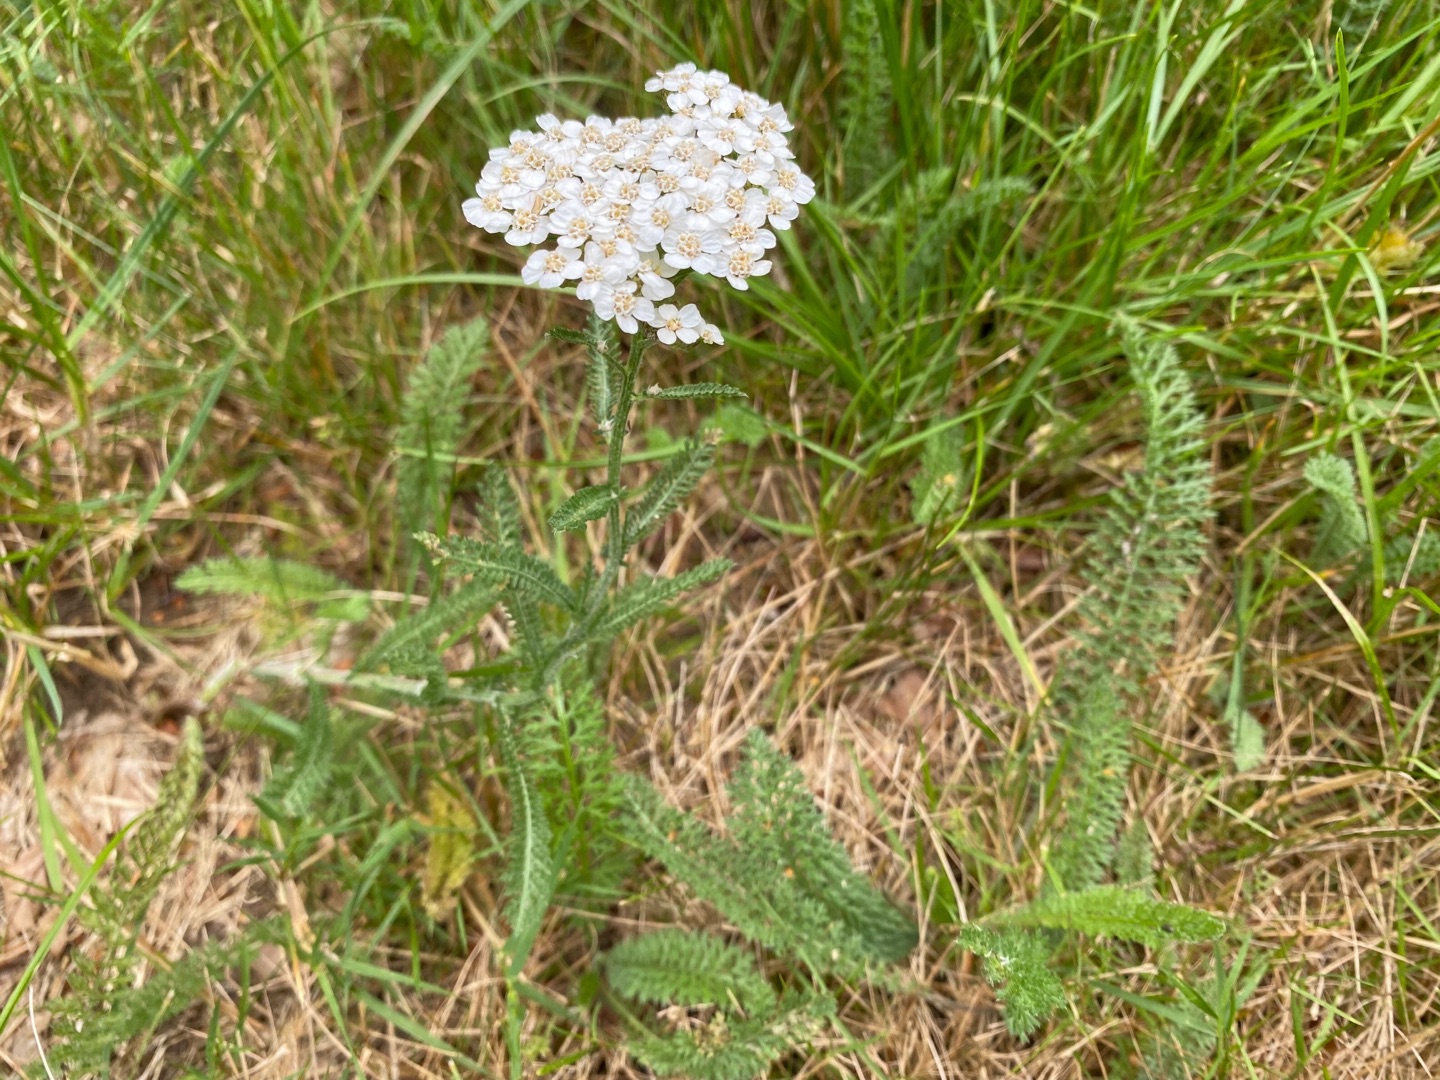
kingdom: Plantae
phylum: Tracheophyta
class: Magnoliopsida
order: Asterales
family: Asteraceae
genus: Achillea
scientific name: Achillea millefolium
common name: Almindelig røllike
